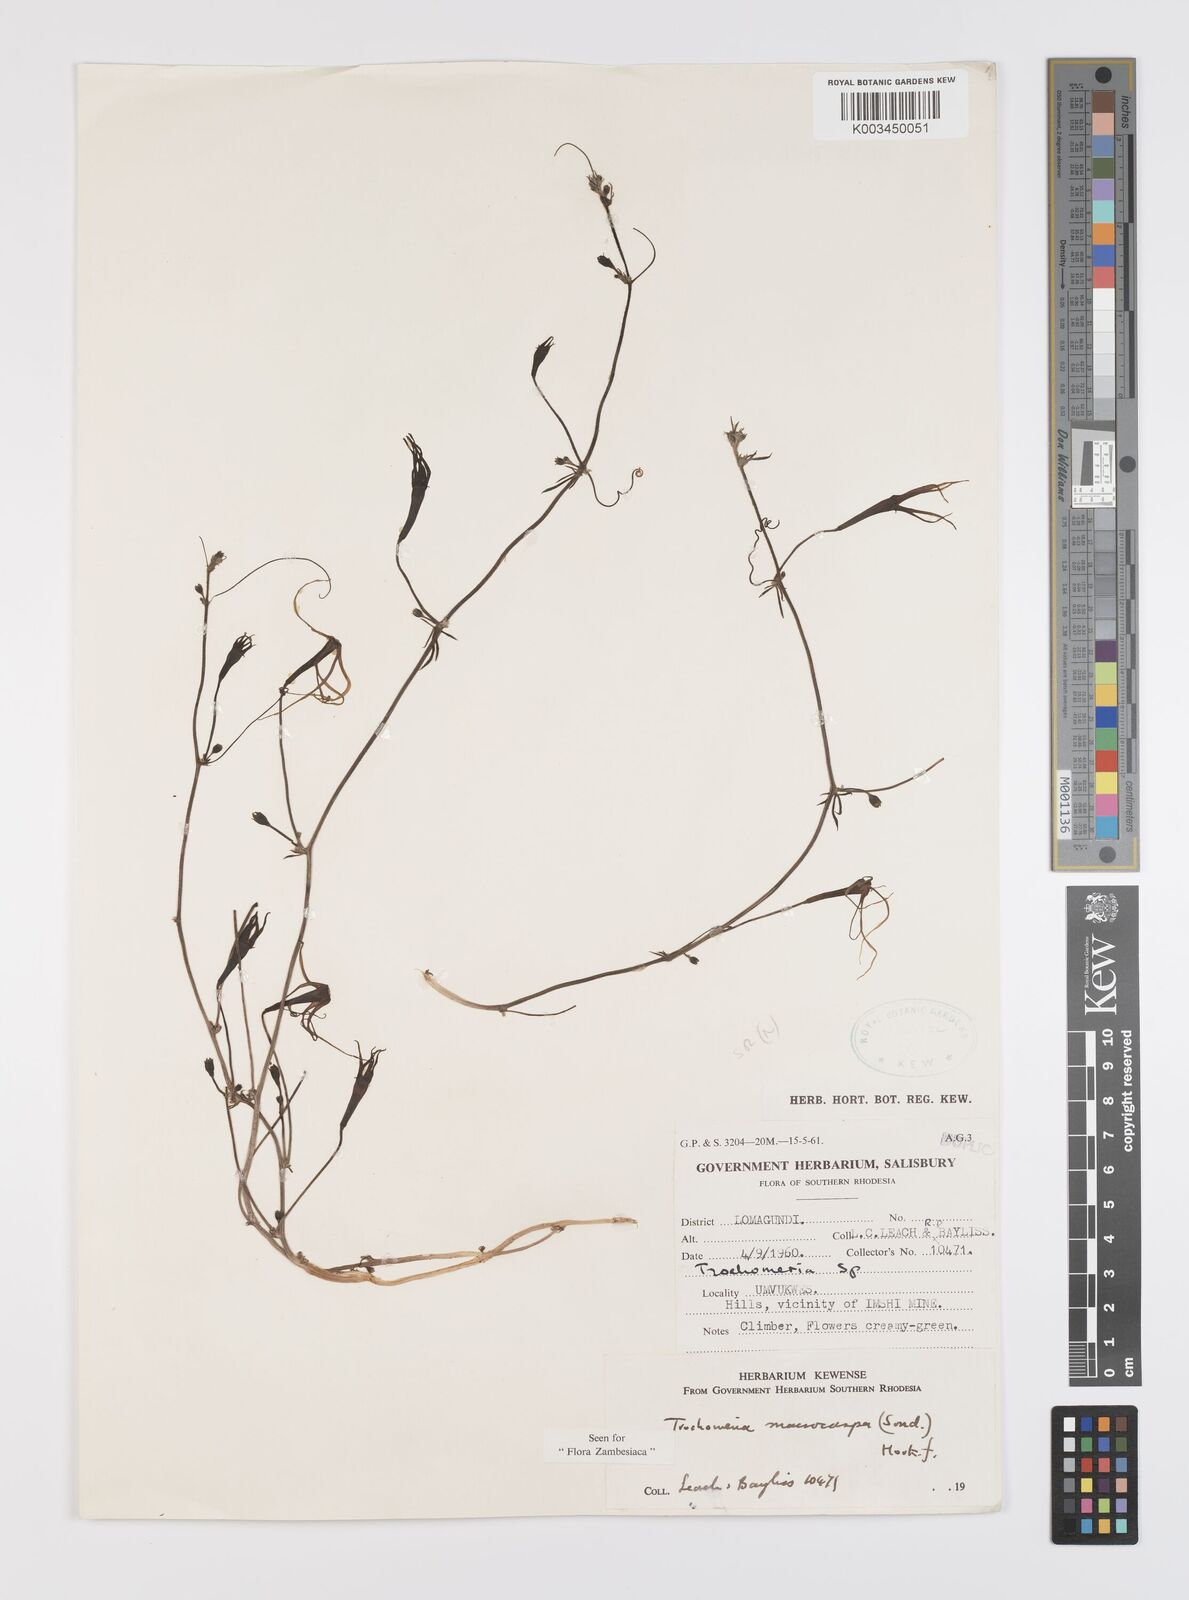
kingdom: Plantae
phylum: Tracheophyta
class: Magnoliopsida
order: Cucurbitales
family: Cucurbitaceae
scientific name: Cucurbitaceae
